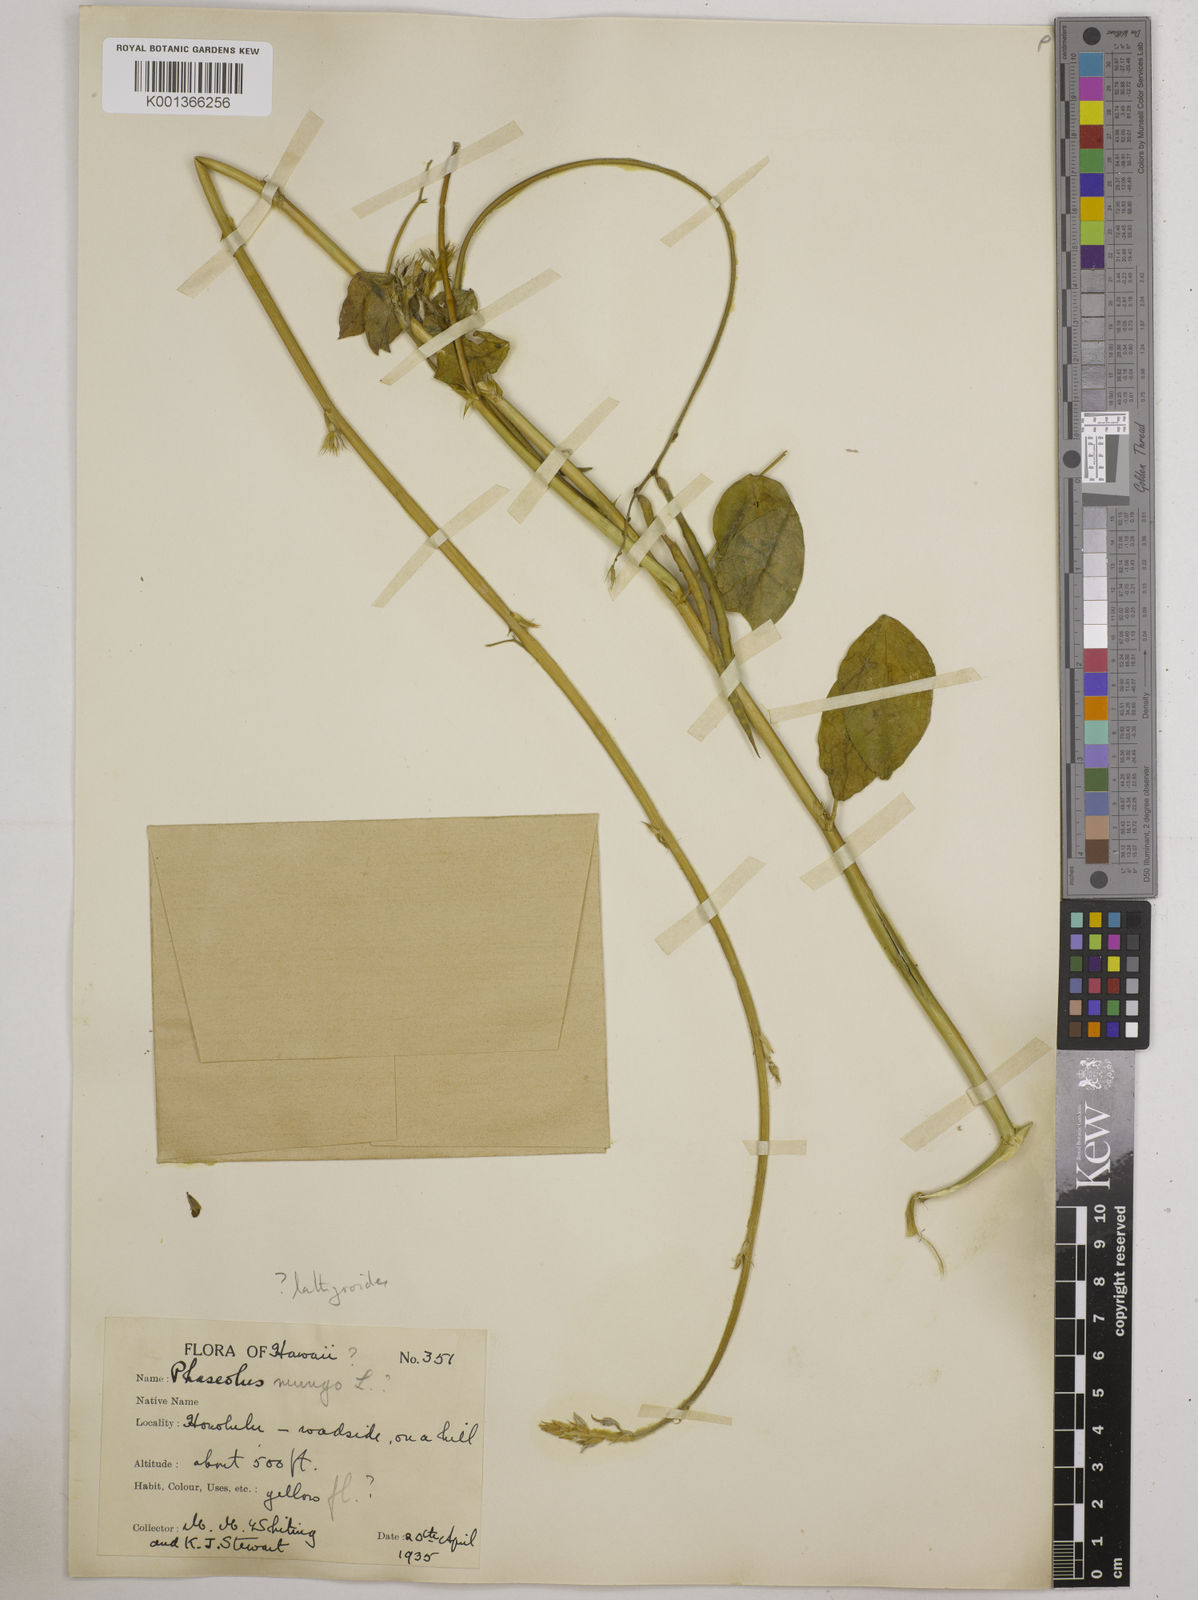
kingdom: Plantae
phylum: Tracheophyta
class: Magnoliopsida
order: Fabales
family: Fabaceae
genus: Macroptilium
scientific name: Macroptilium lathyroides
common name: Wild bushbean
